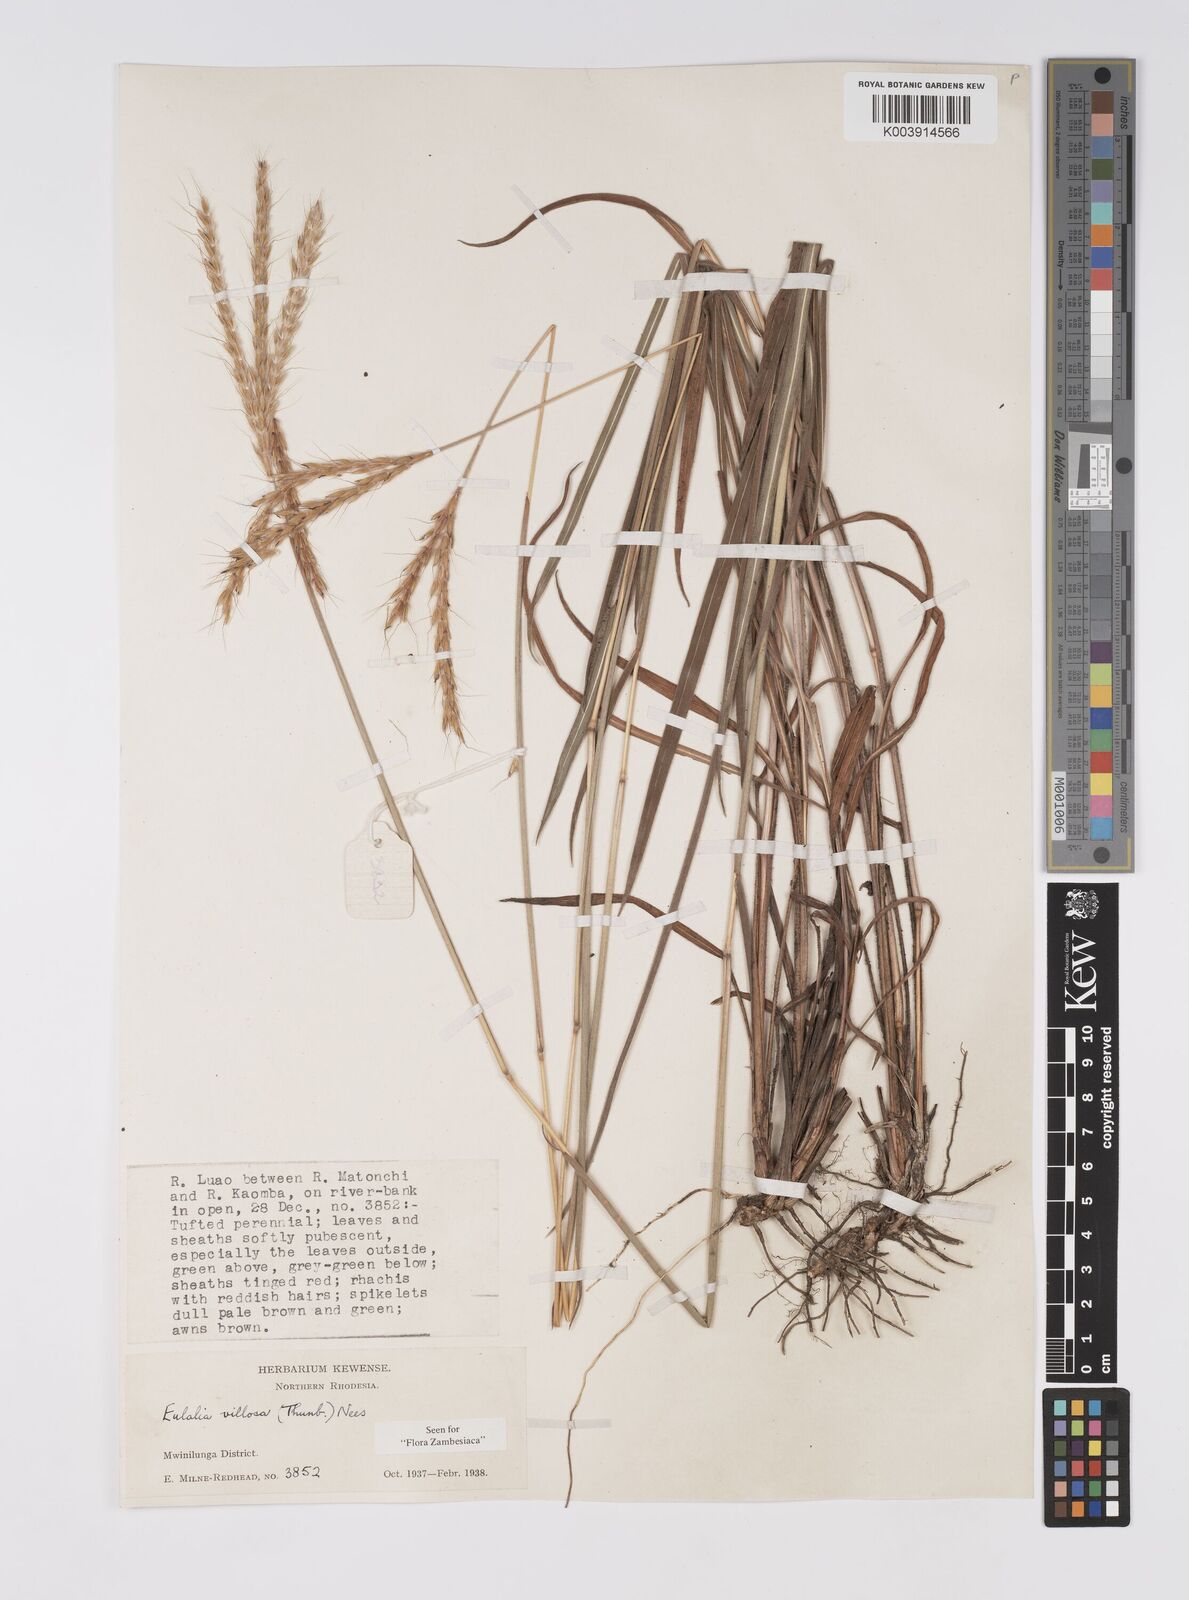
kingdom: Plantae
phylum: Tracheophyta
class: Liliopsida
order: Poales
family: Poaceae
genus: Eulalia
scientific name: Eulalia villosa
